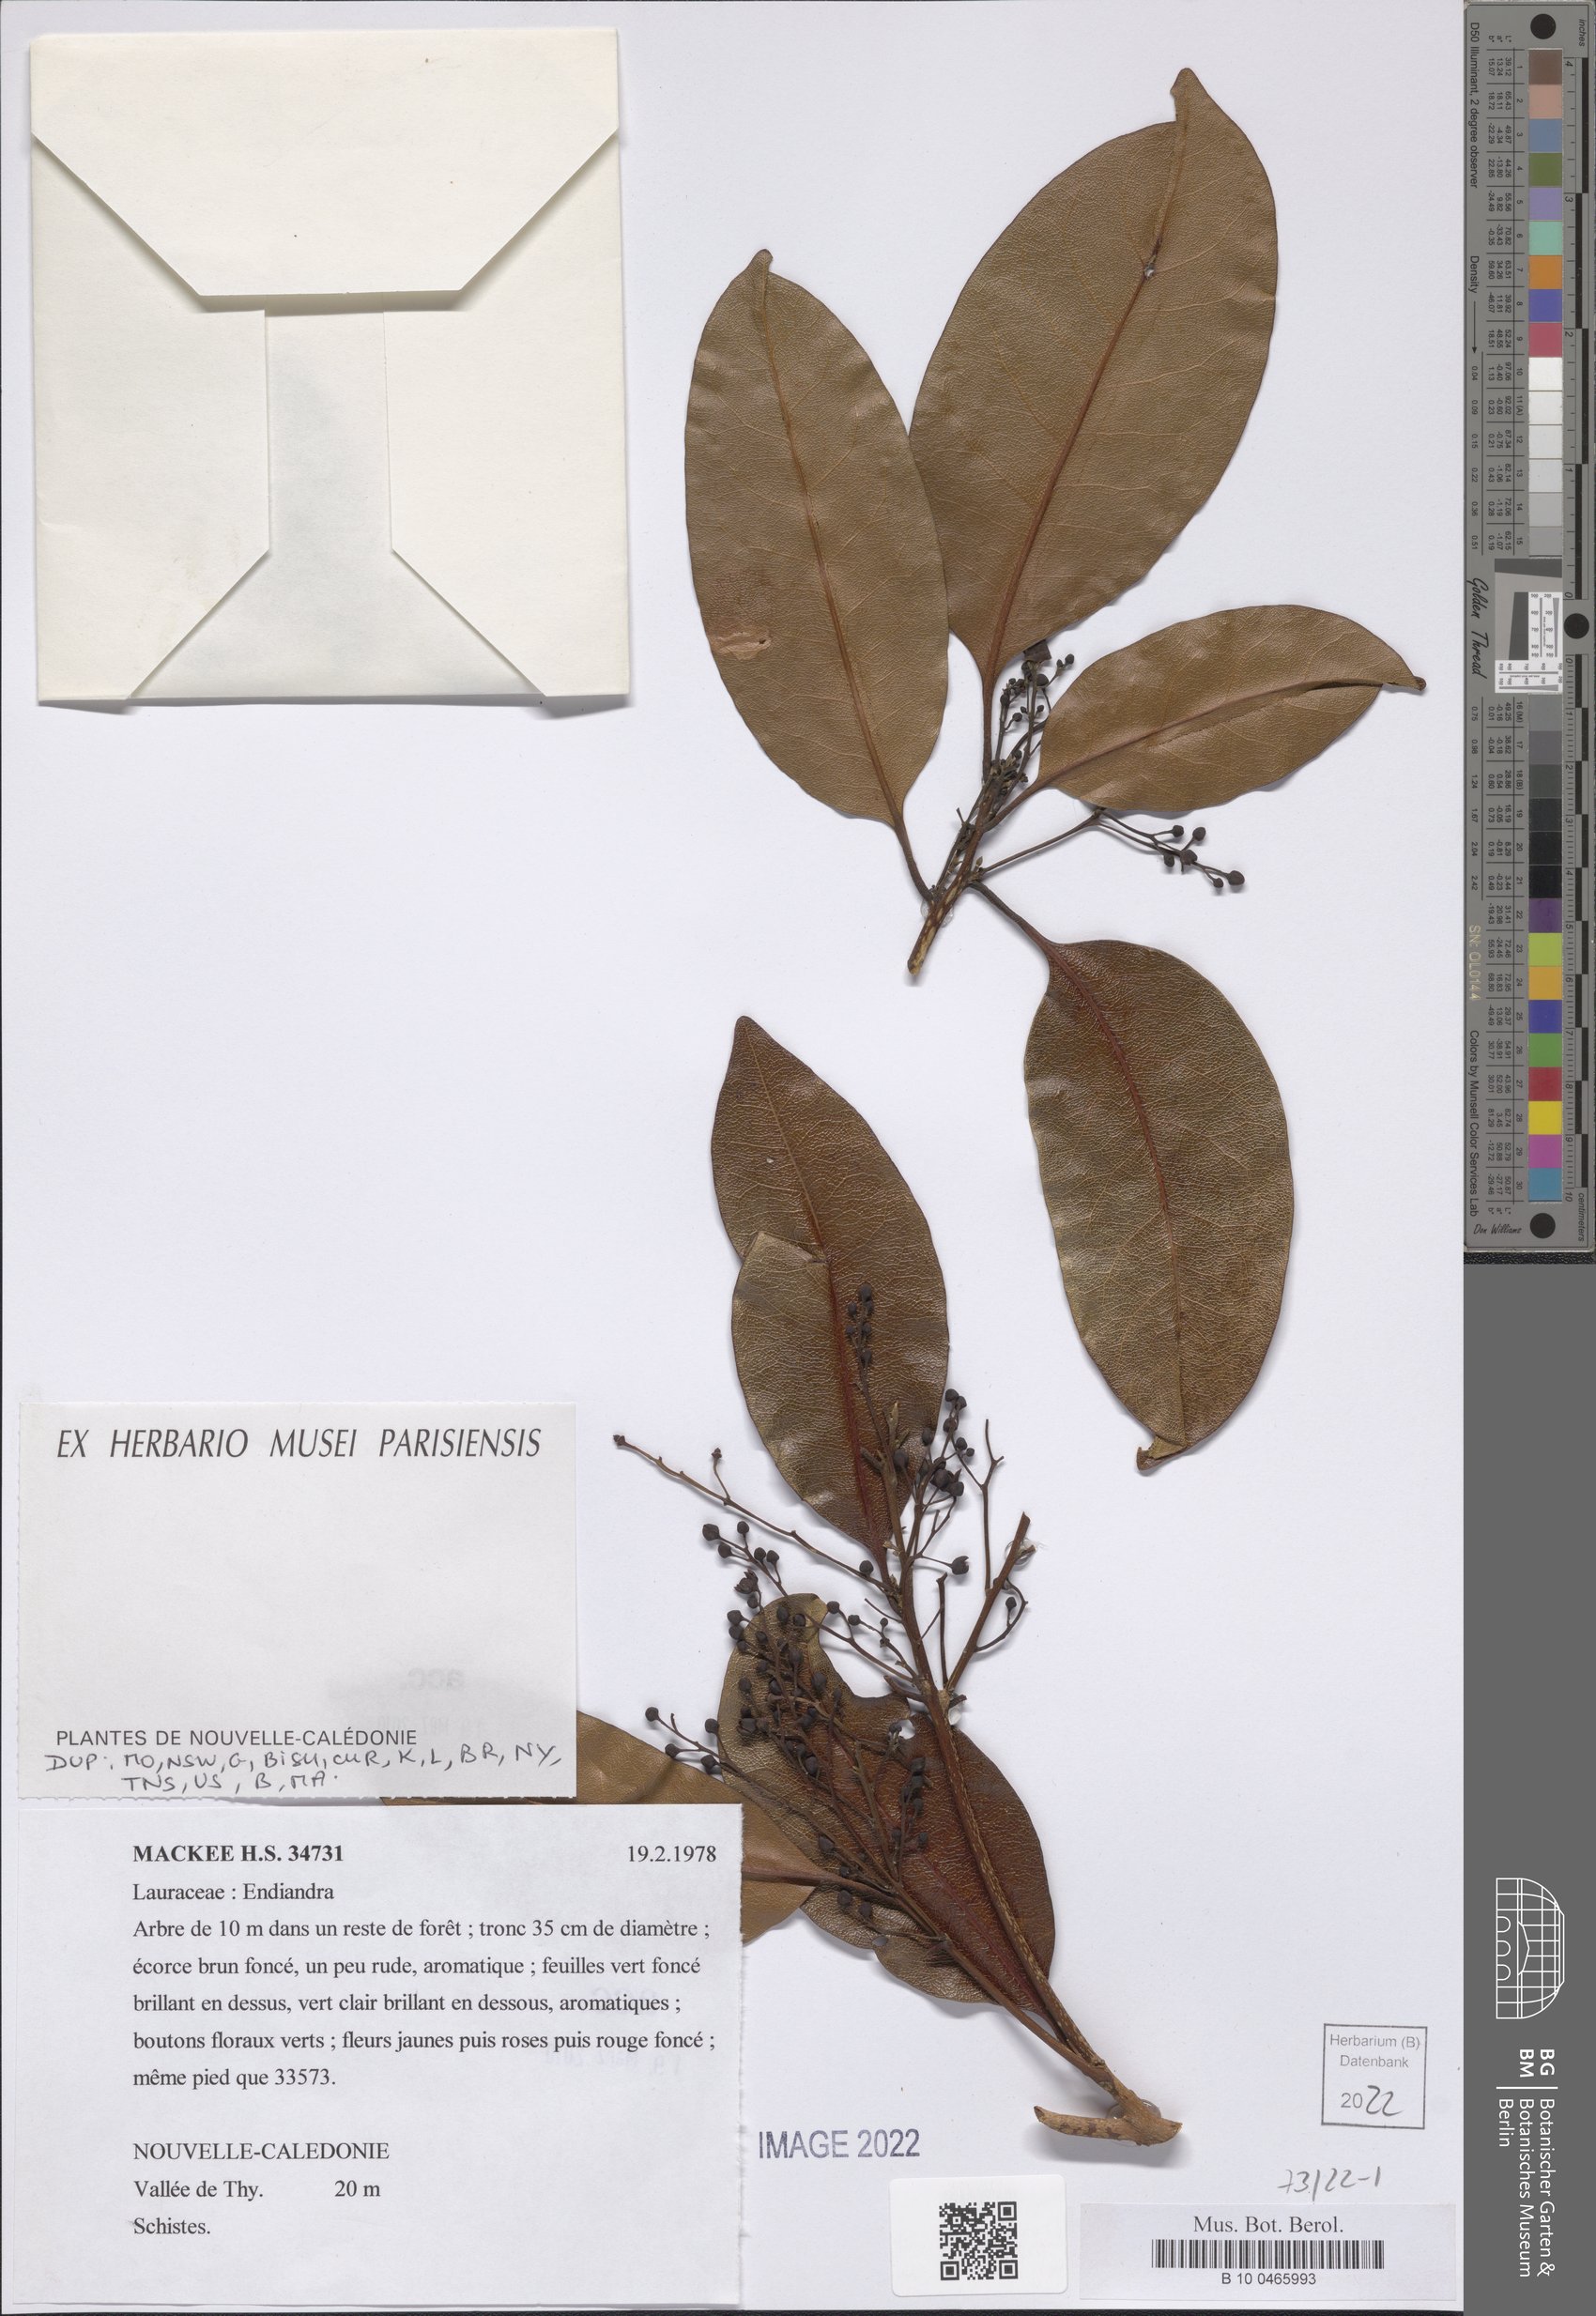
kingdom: Plantae
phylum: Tracheophyta
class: Magnoliopsida
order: Laurales
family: Lauraceae
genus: Endiandra
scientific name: Endiandra polyneura
